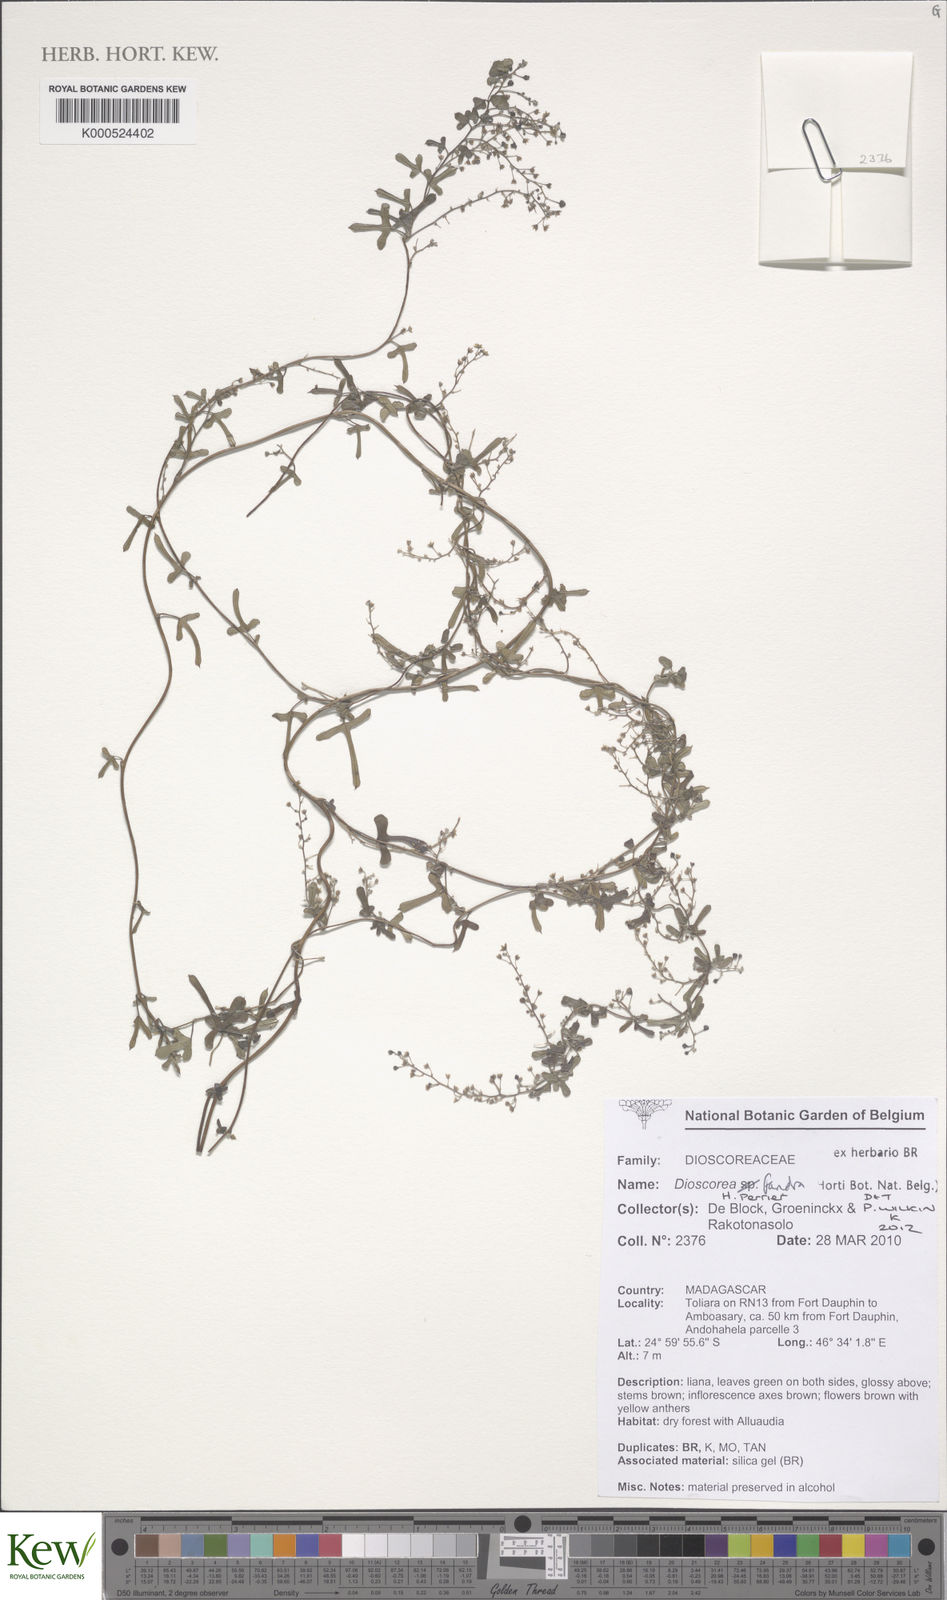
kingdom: Plantae
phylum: Tracheophyta
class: Liliopsida
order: Dioscoreales
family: Dioscoreaceae
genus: Dioscorea
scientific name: Dioscorea fandra
